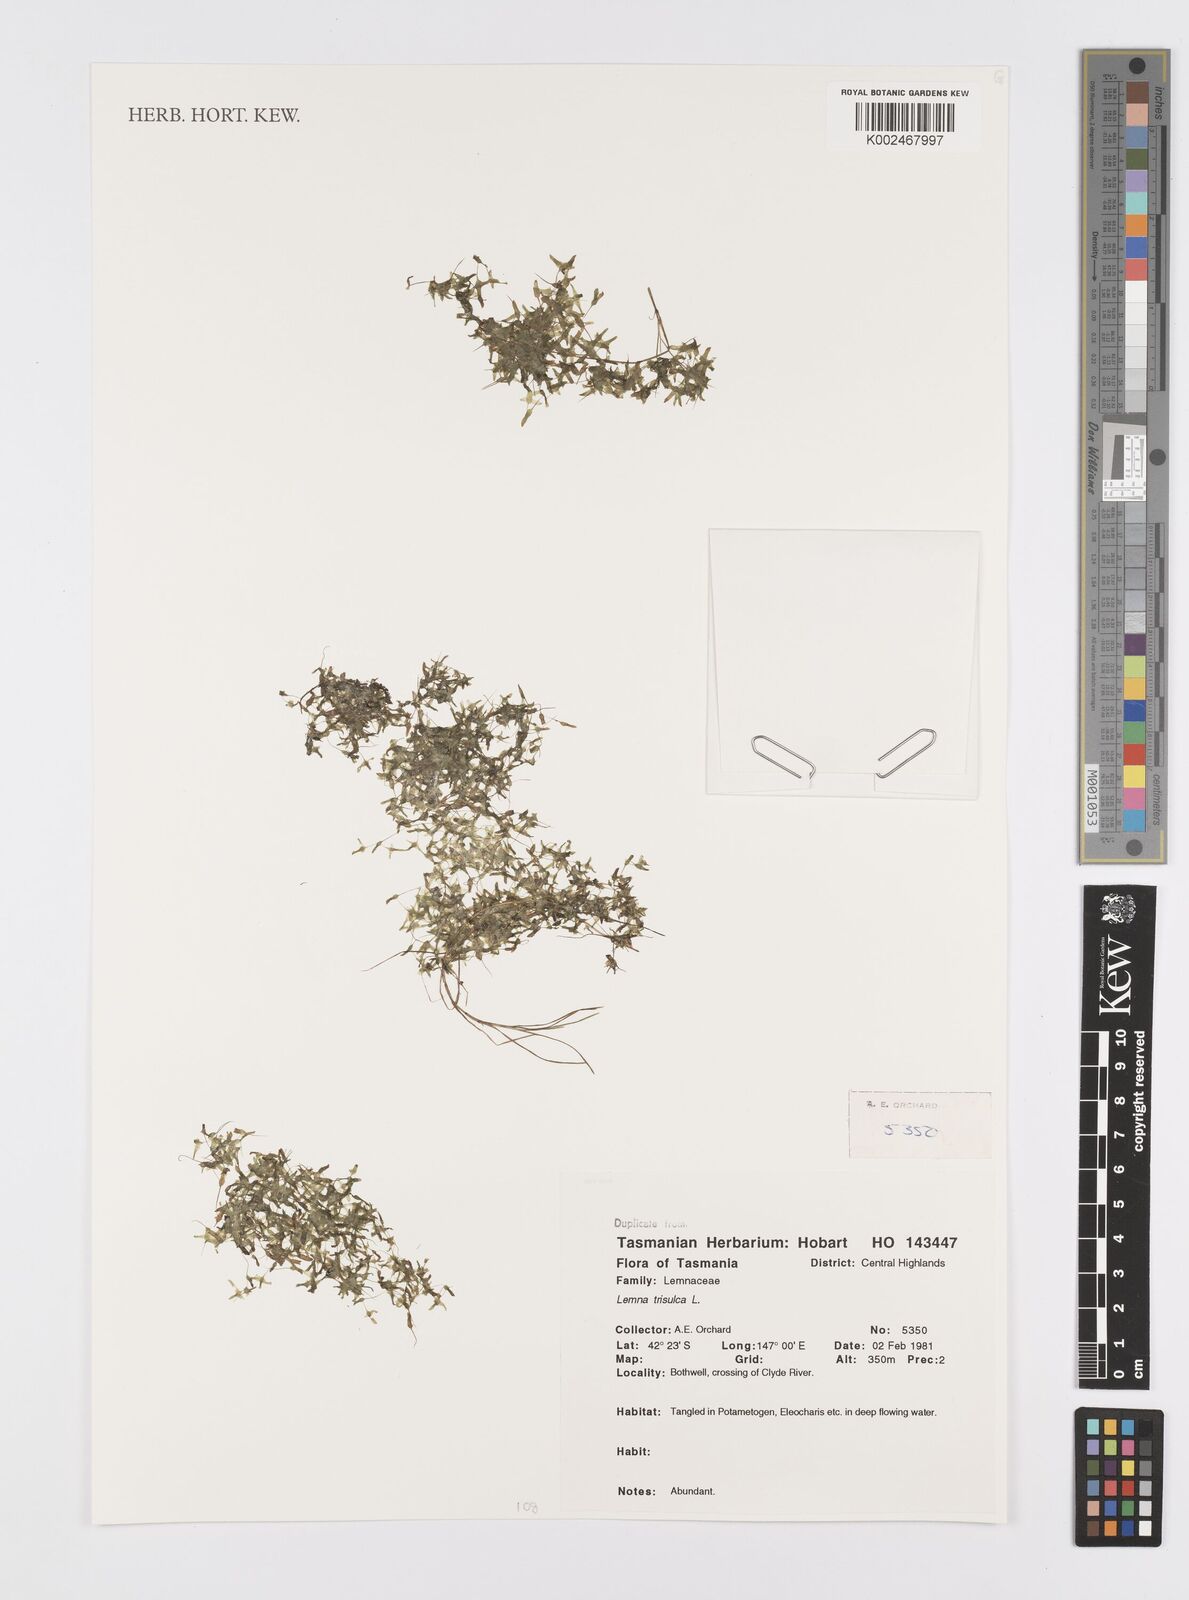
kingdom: Plantae
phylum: Tracheophyta
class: Liliopsida
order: Alismatales
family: Araceae
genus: Lemna
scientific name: Lemna trisulca
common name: Ivy-leaved duckweed
